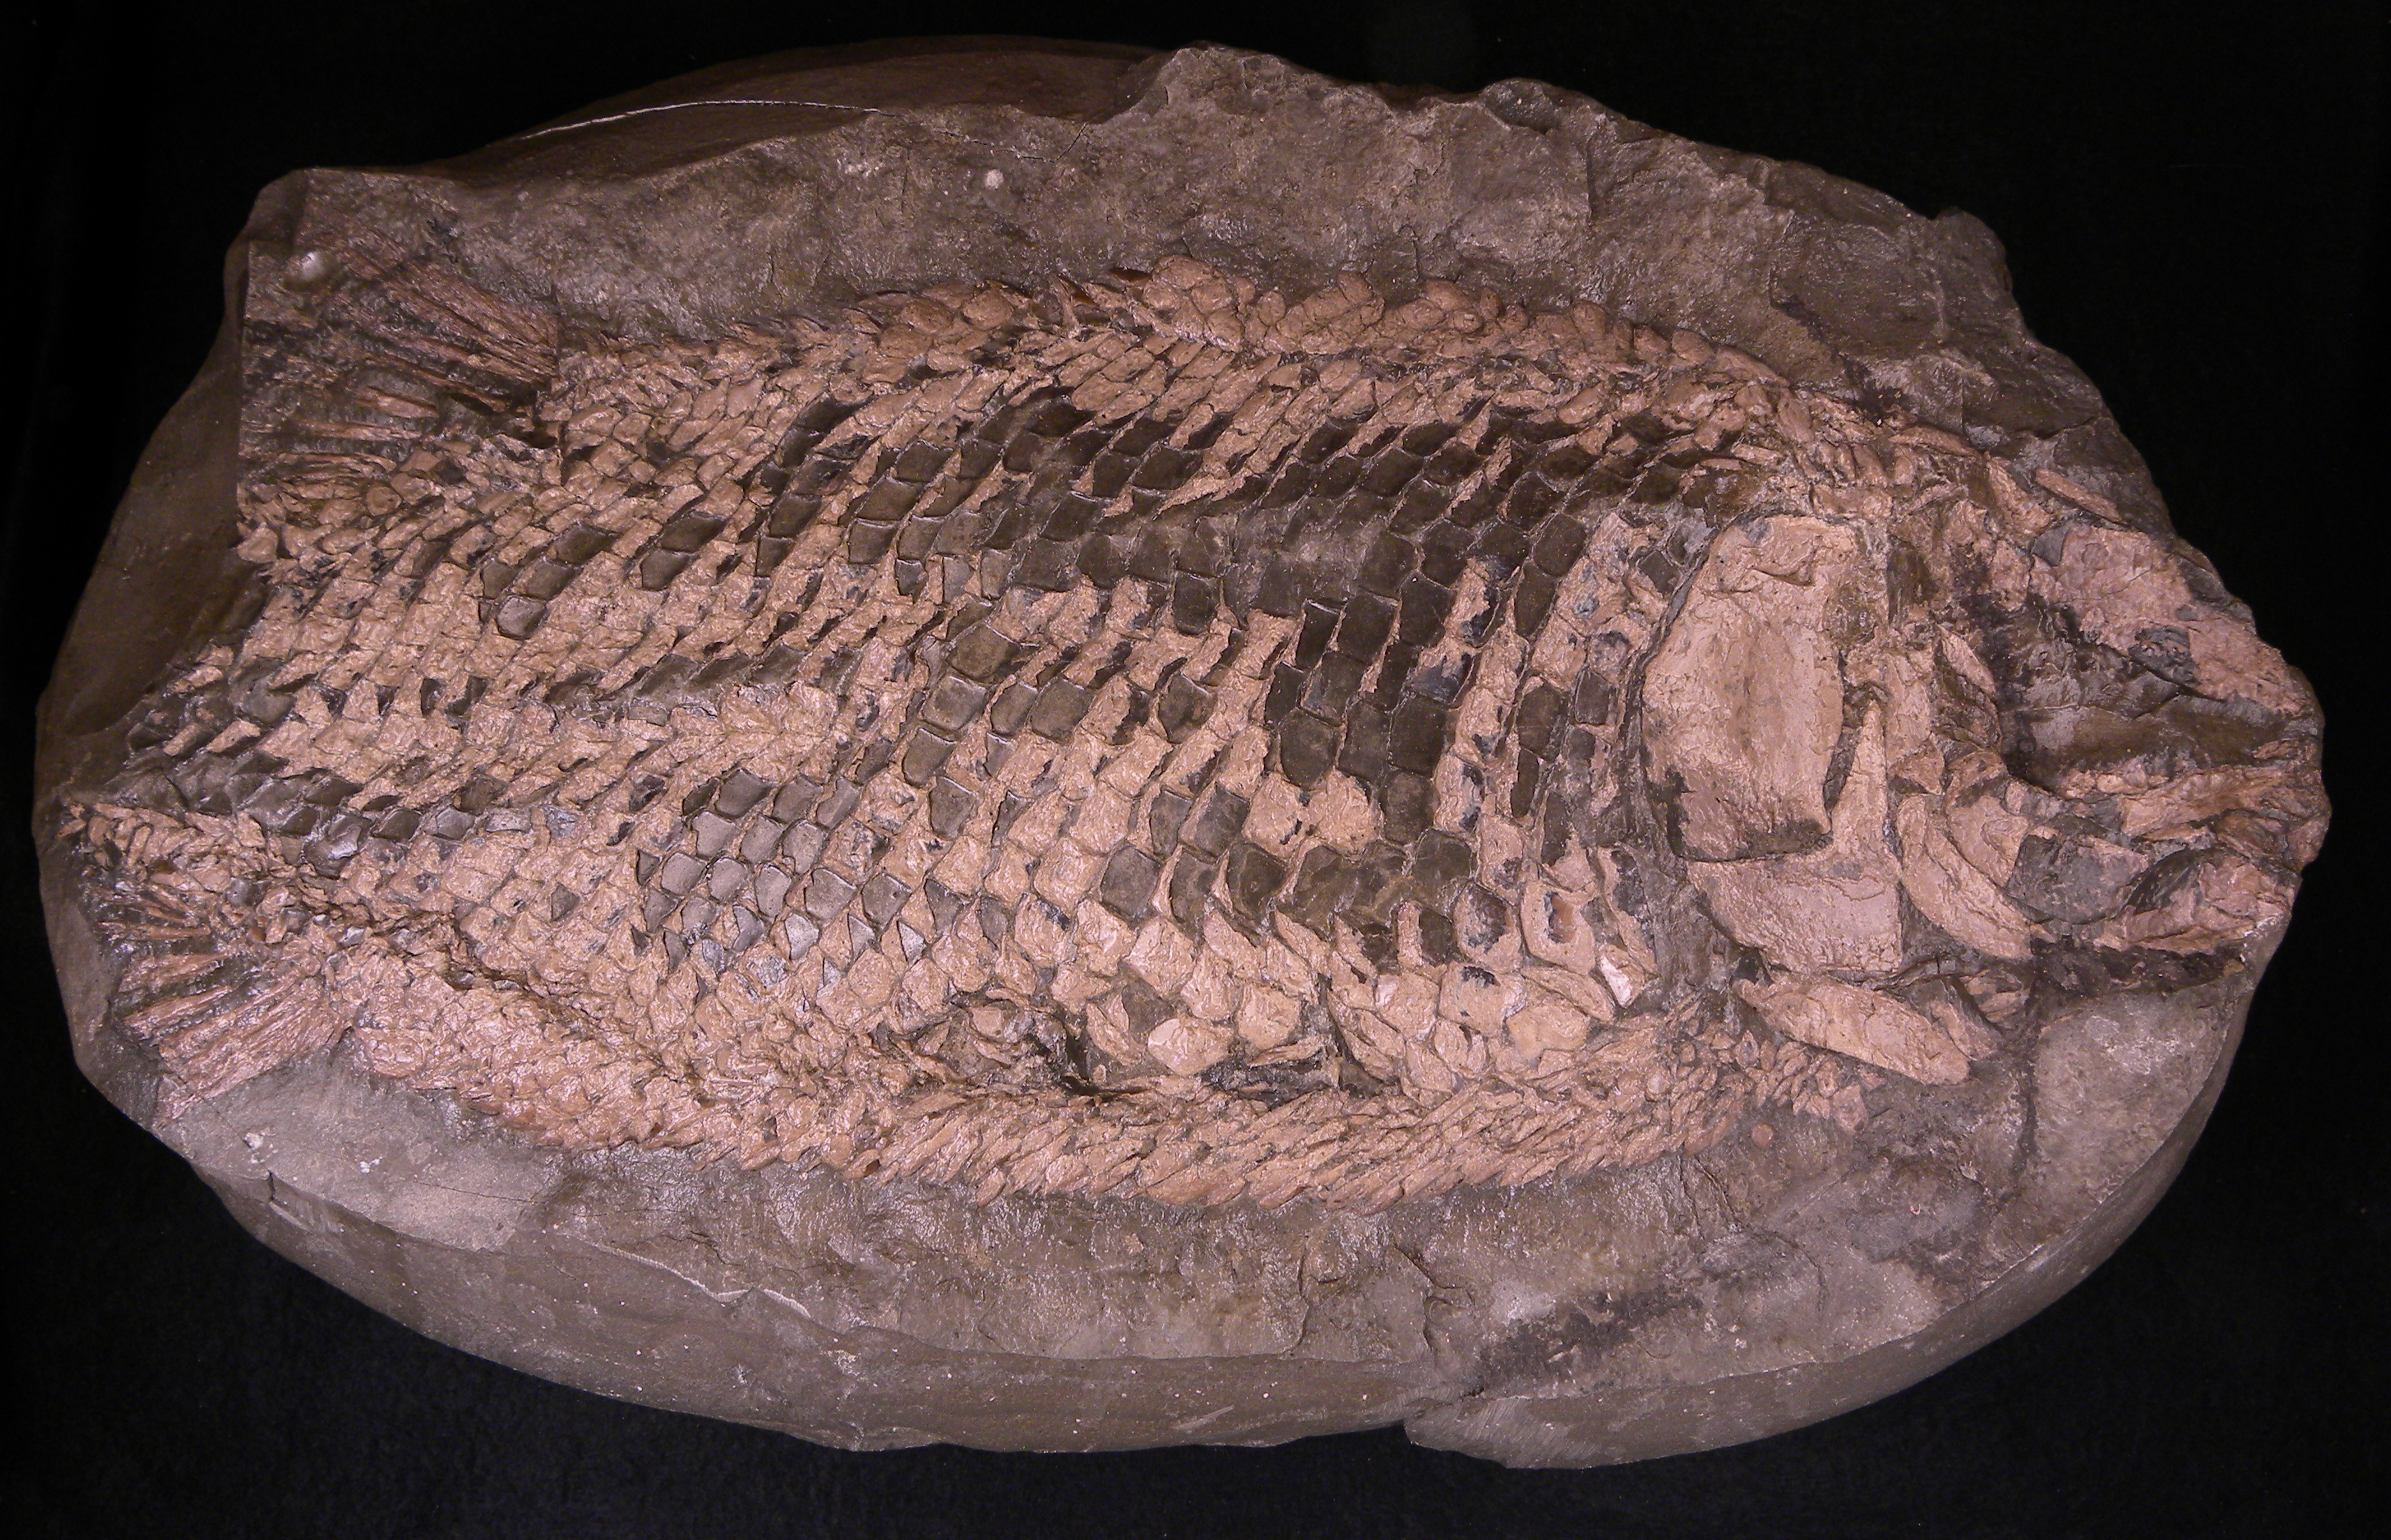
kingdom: Animalia
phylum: Chordata
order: Lepisosteiformes
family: Lepidotidae
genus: Lepidotes
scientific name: Lepidotes elvensis
